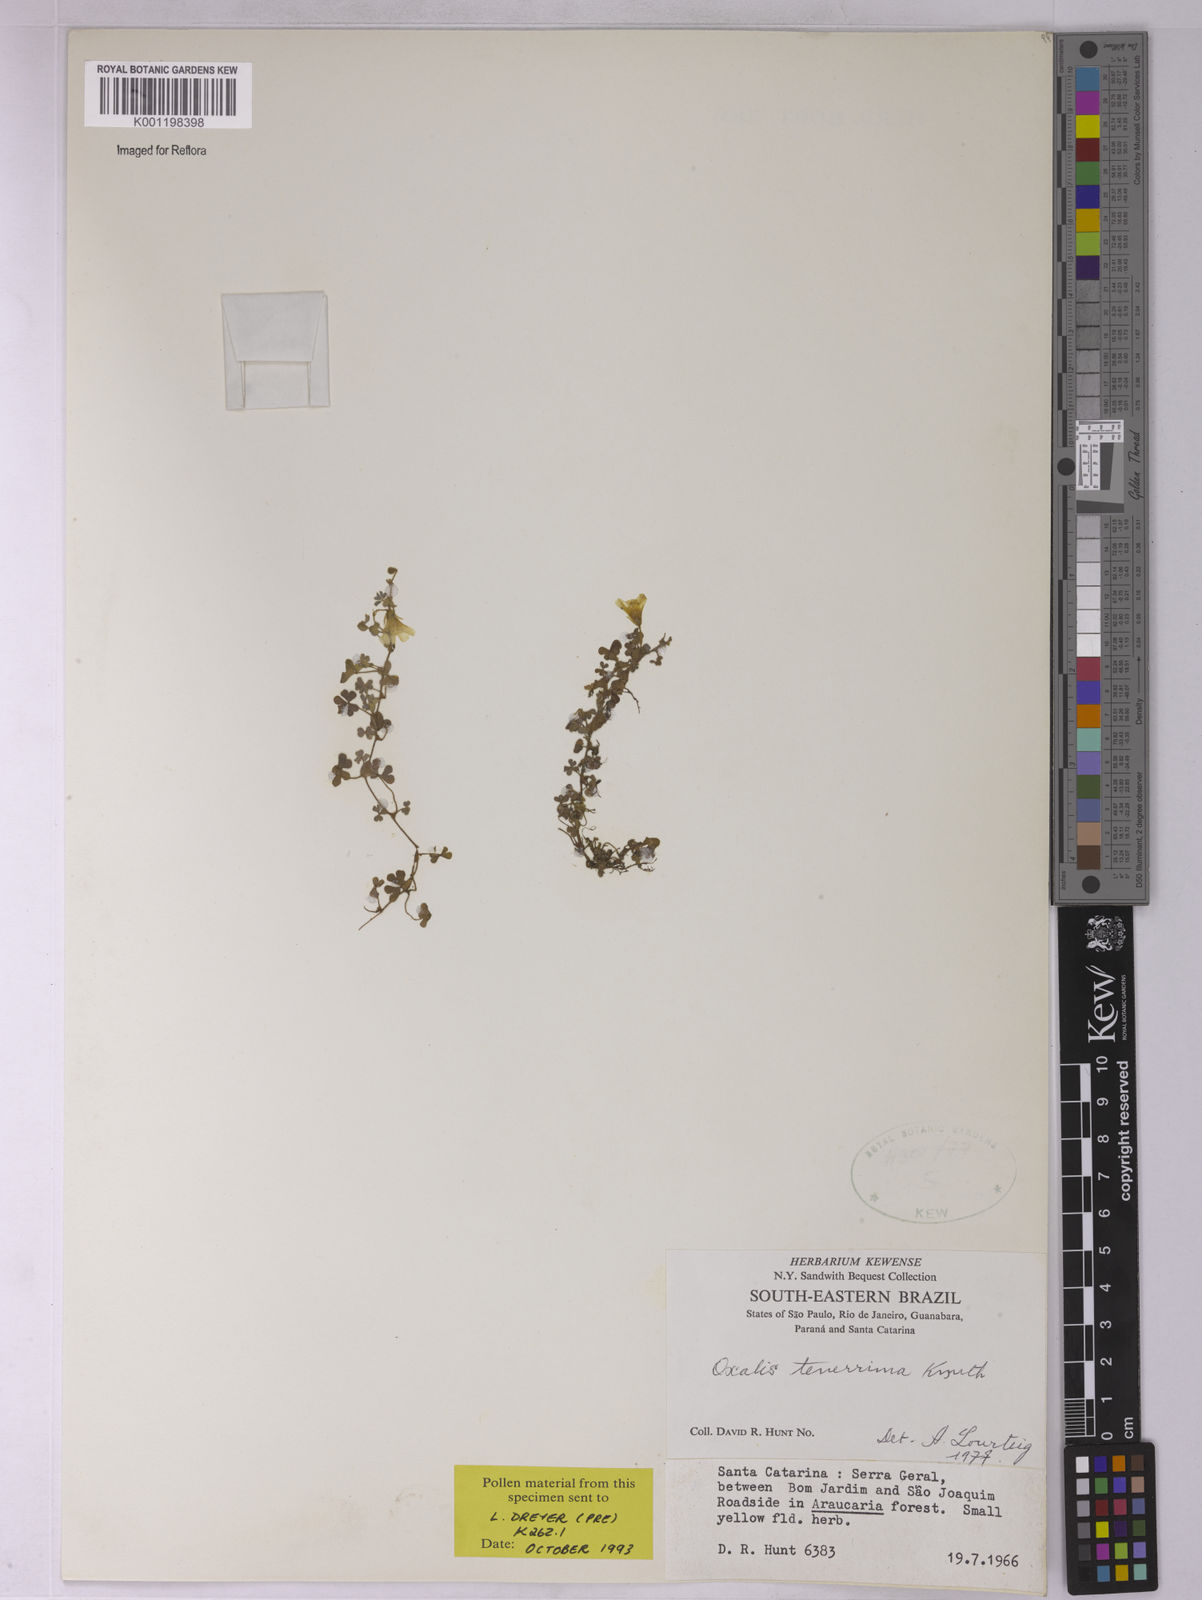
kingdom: Plantae
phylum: Tracheophyta
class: Magnoliopsida
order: Oxalidales
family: Oxalidaceae
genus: Oxalis
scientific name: Oxalis tenerrima
